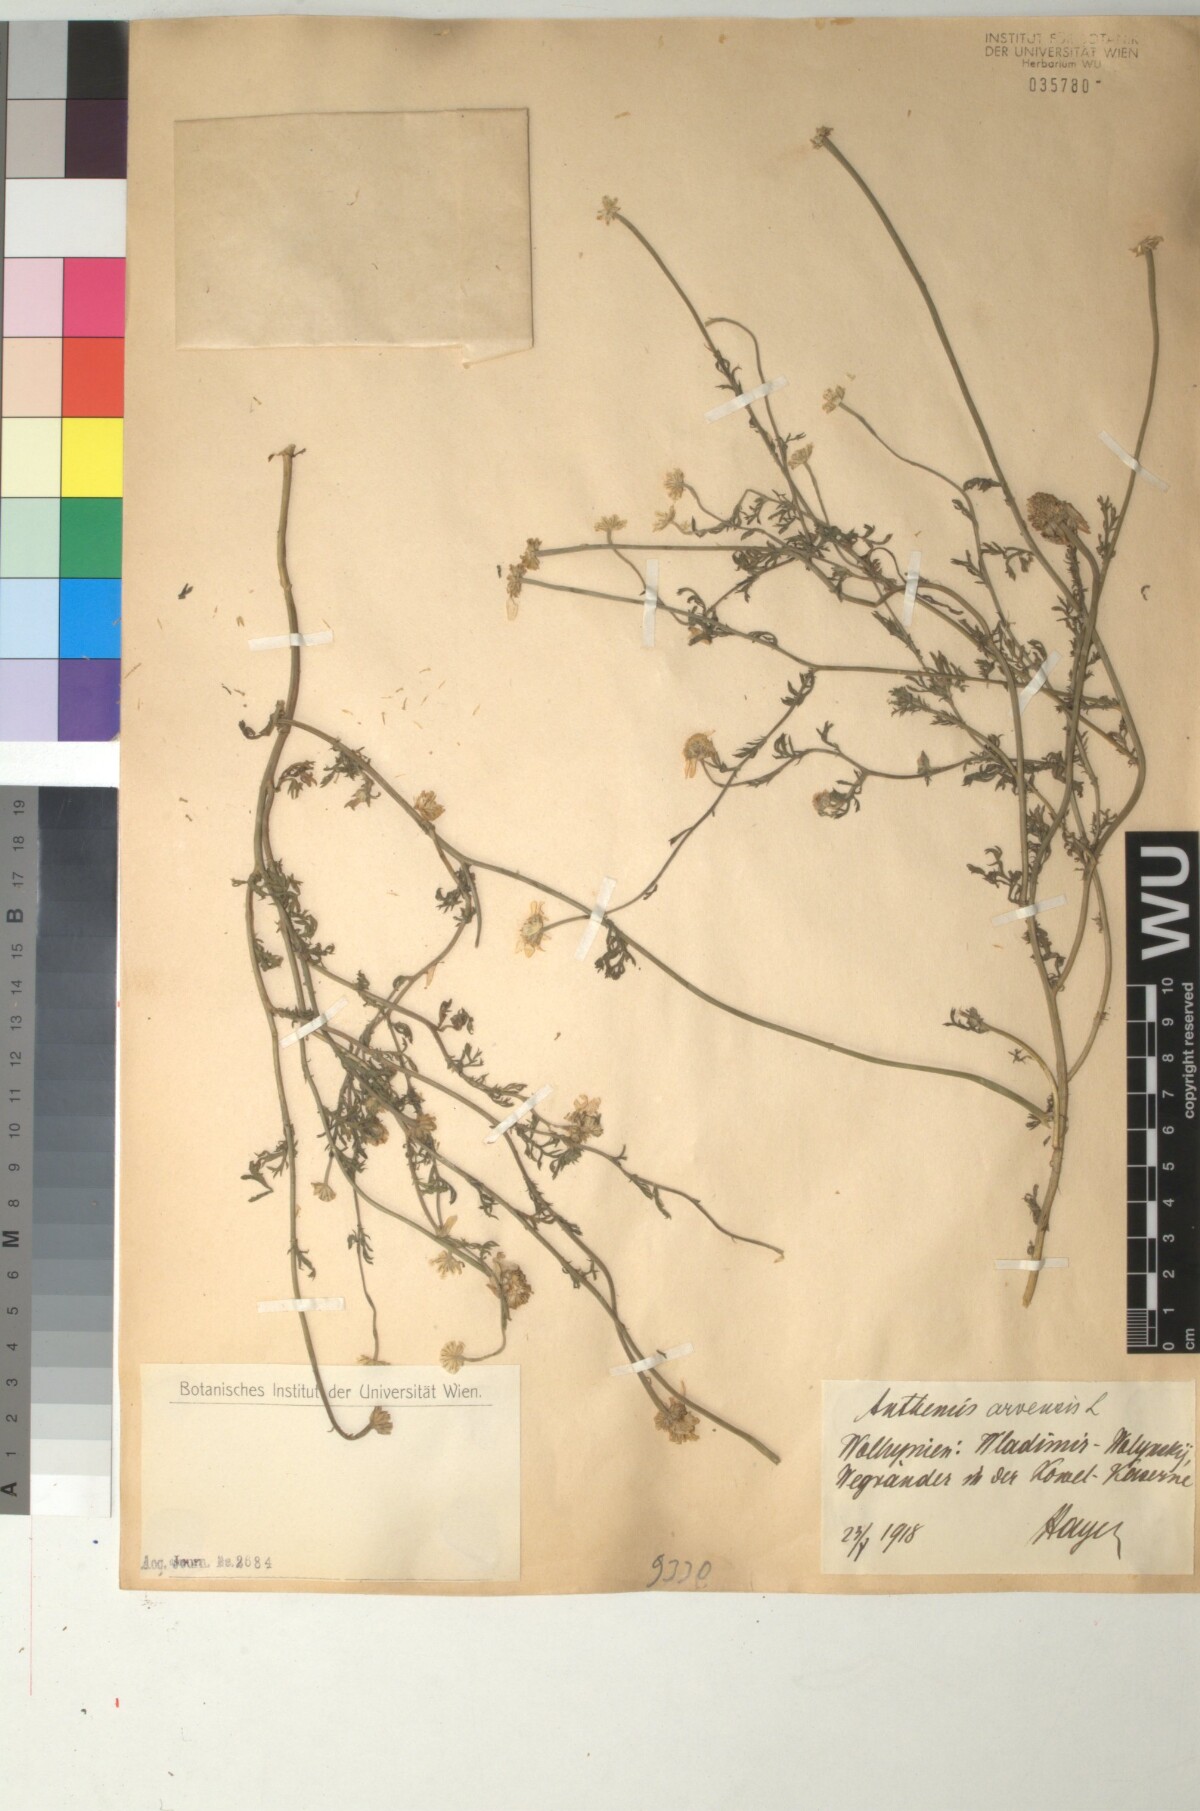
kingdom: Plantae
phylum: Tracheophyta
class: Magnoliopsida
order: Asterales
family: Asteraceae
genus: Anthemis
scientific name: Anthemis arvensis
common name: Corn chamomile
